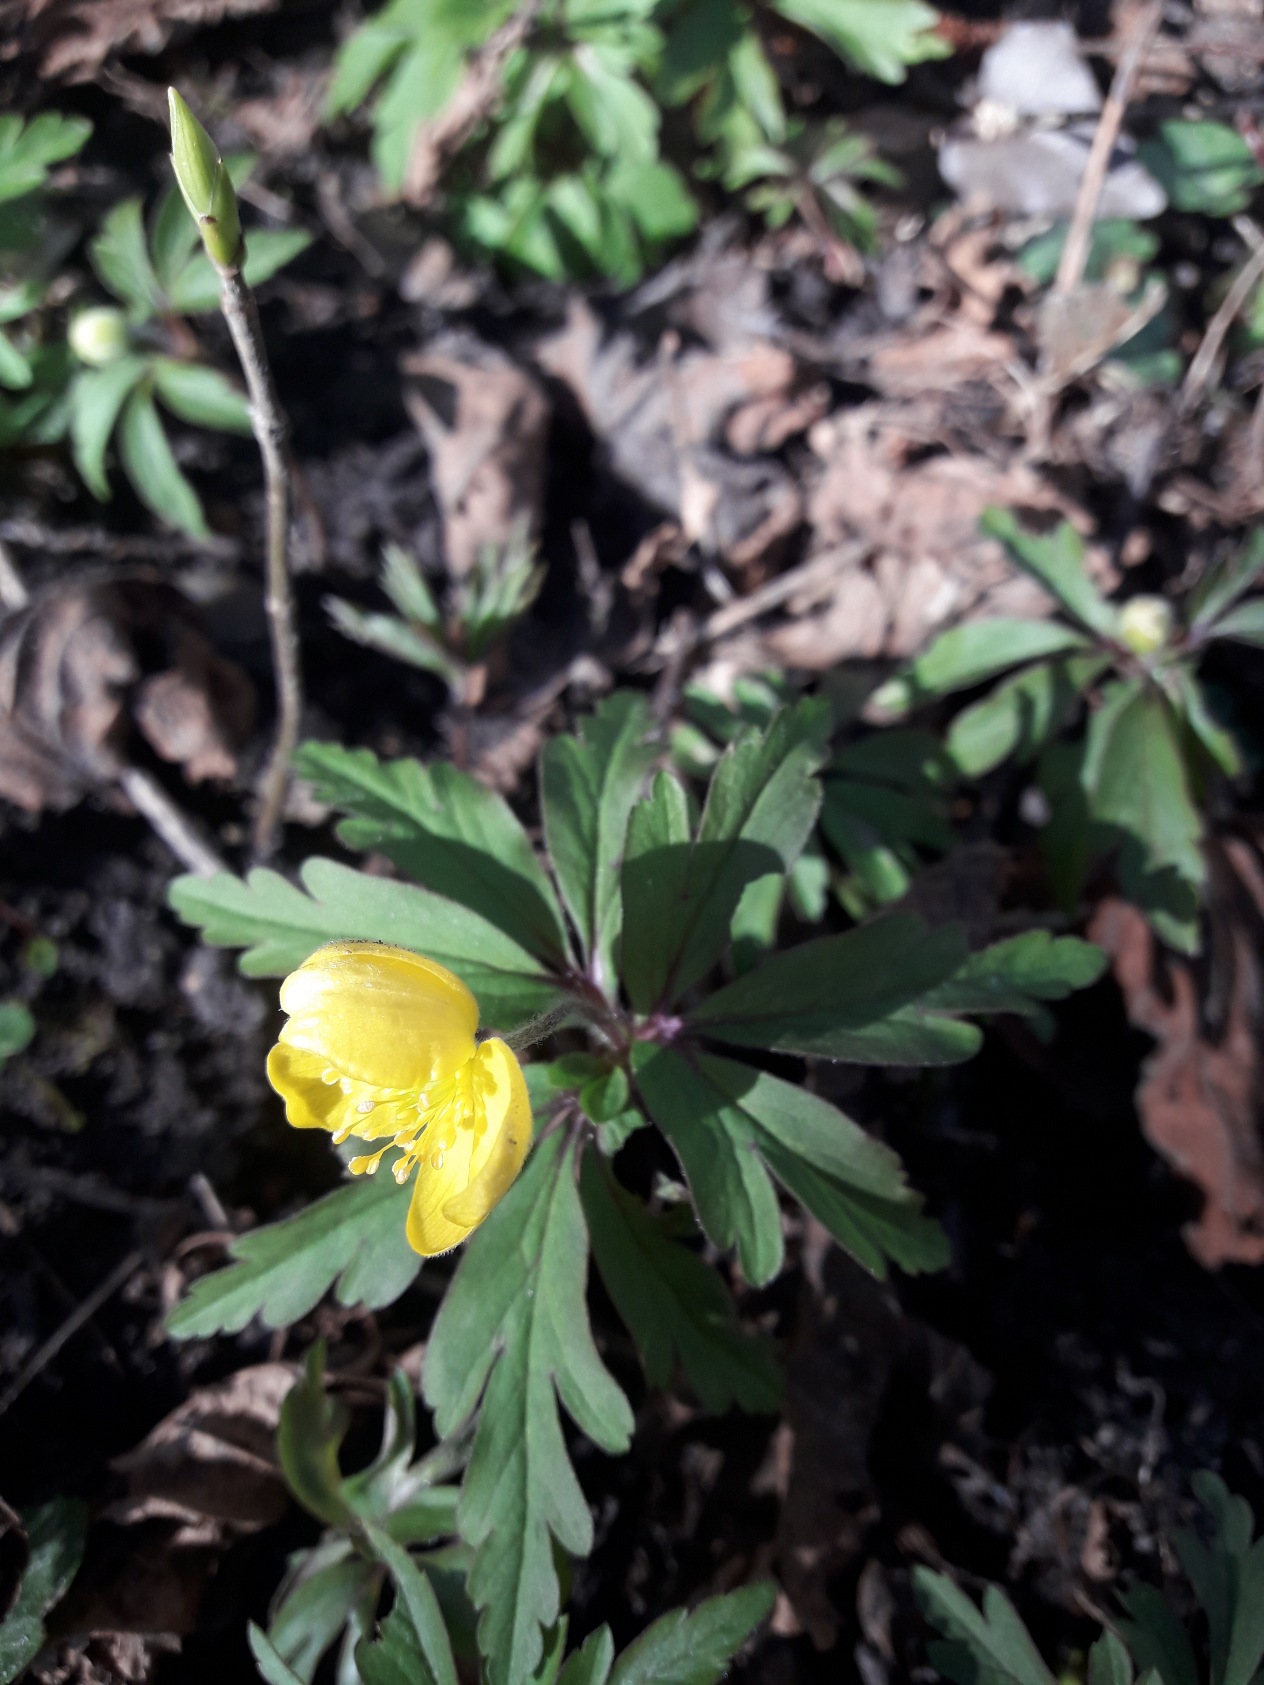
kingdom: Plantae
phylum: Tracheophyta
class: Magnoliopsida
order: Ranunculales
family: Ranunculaceae
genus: Anemone
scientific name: Anemone ranunculoides
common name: Gul anemone
